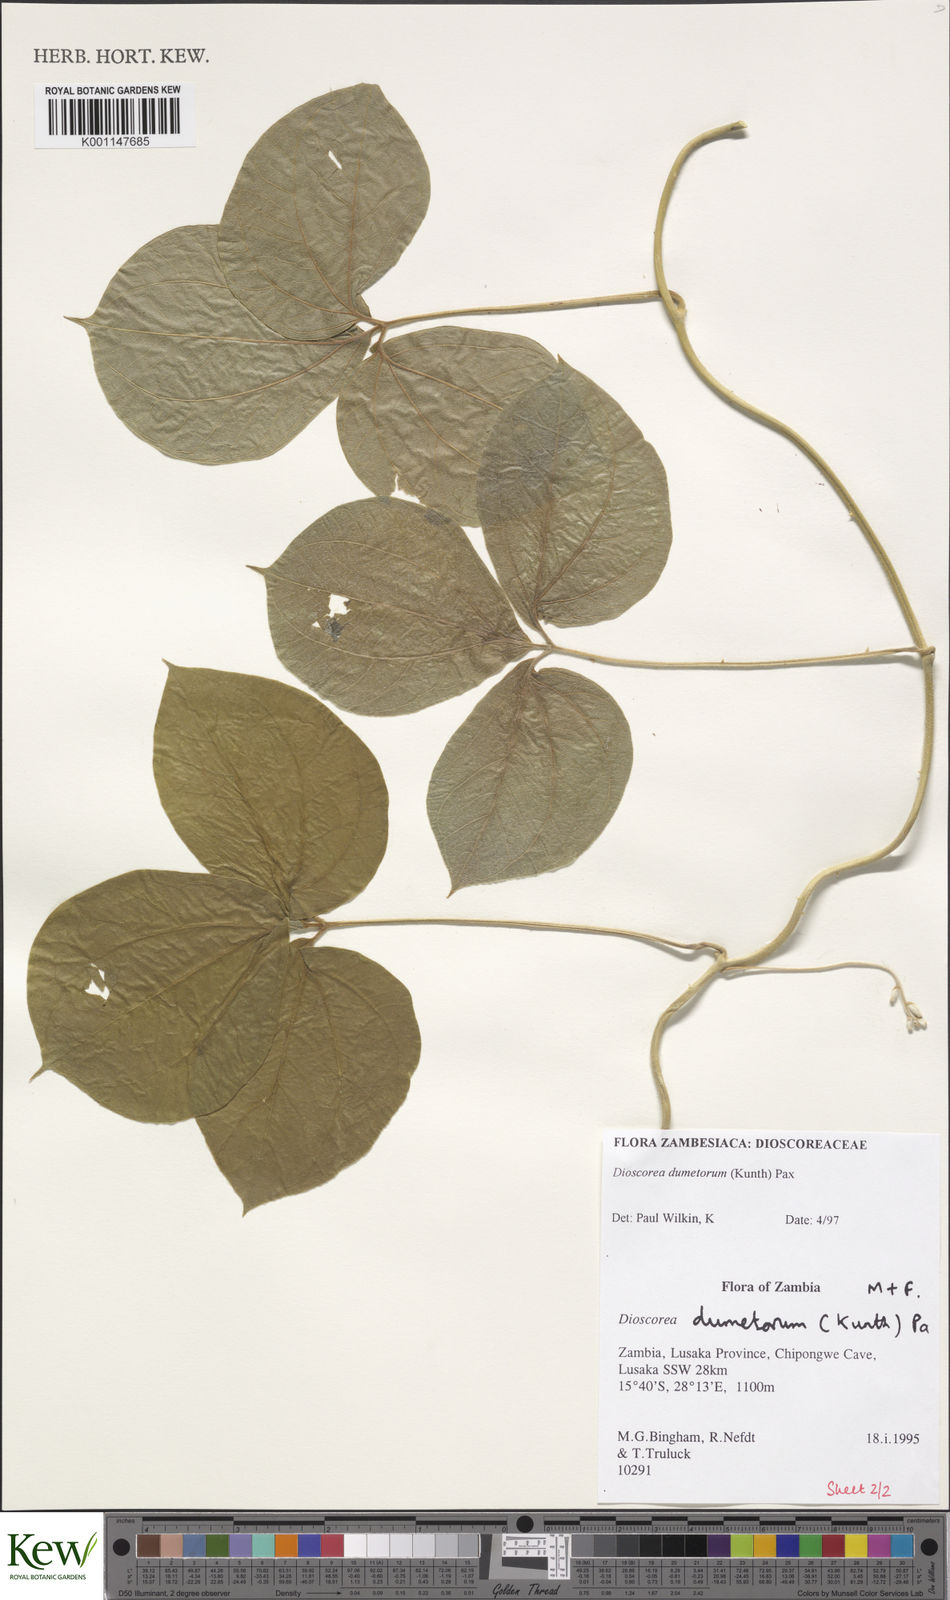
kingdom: Plantae
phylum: Tracheophyta
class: Liliopsida
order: Dioscoreales
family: Dioscoreaceae
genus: Dioscorea
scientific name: Dioscorea dumetorum
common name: African bitter yam
